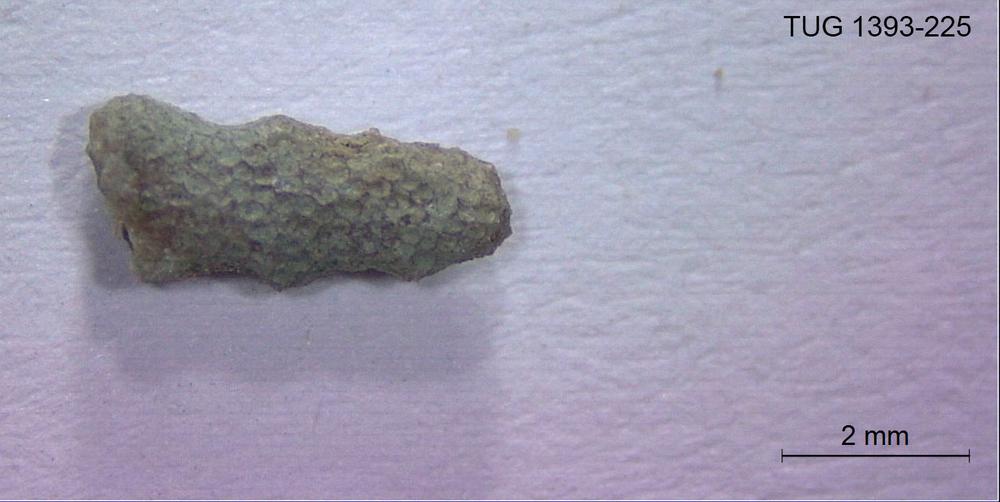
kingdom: Animalia
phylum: Bryozoa
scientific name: Bryozoa
